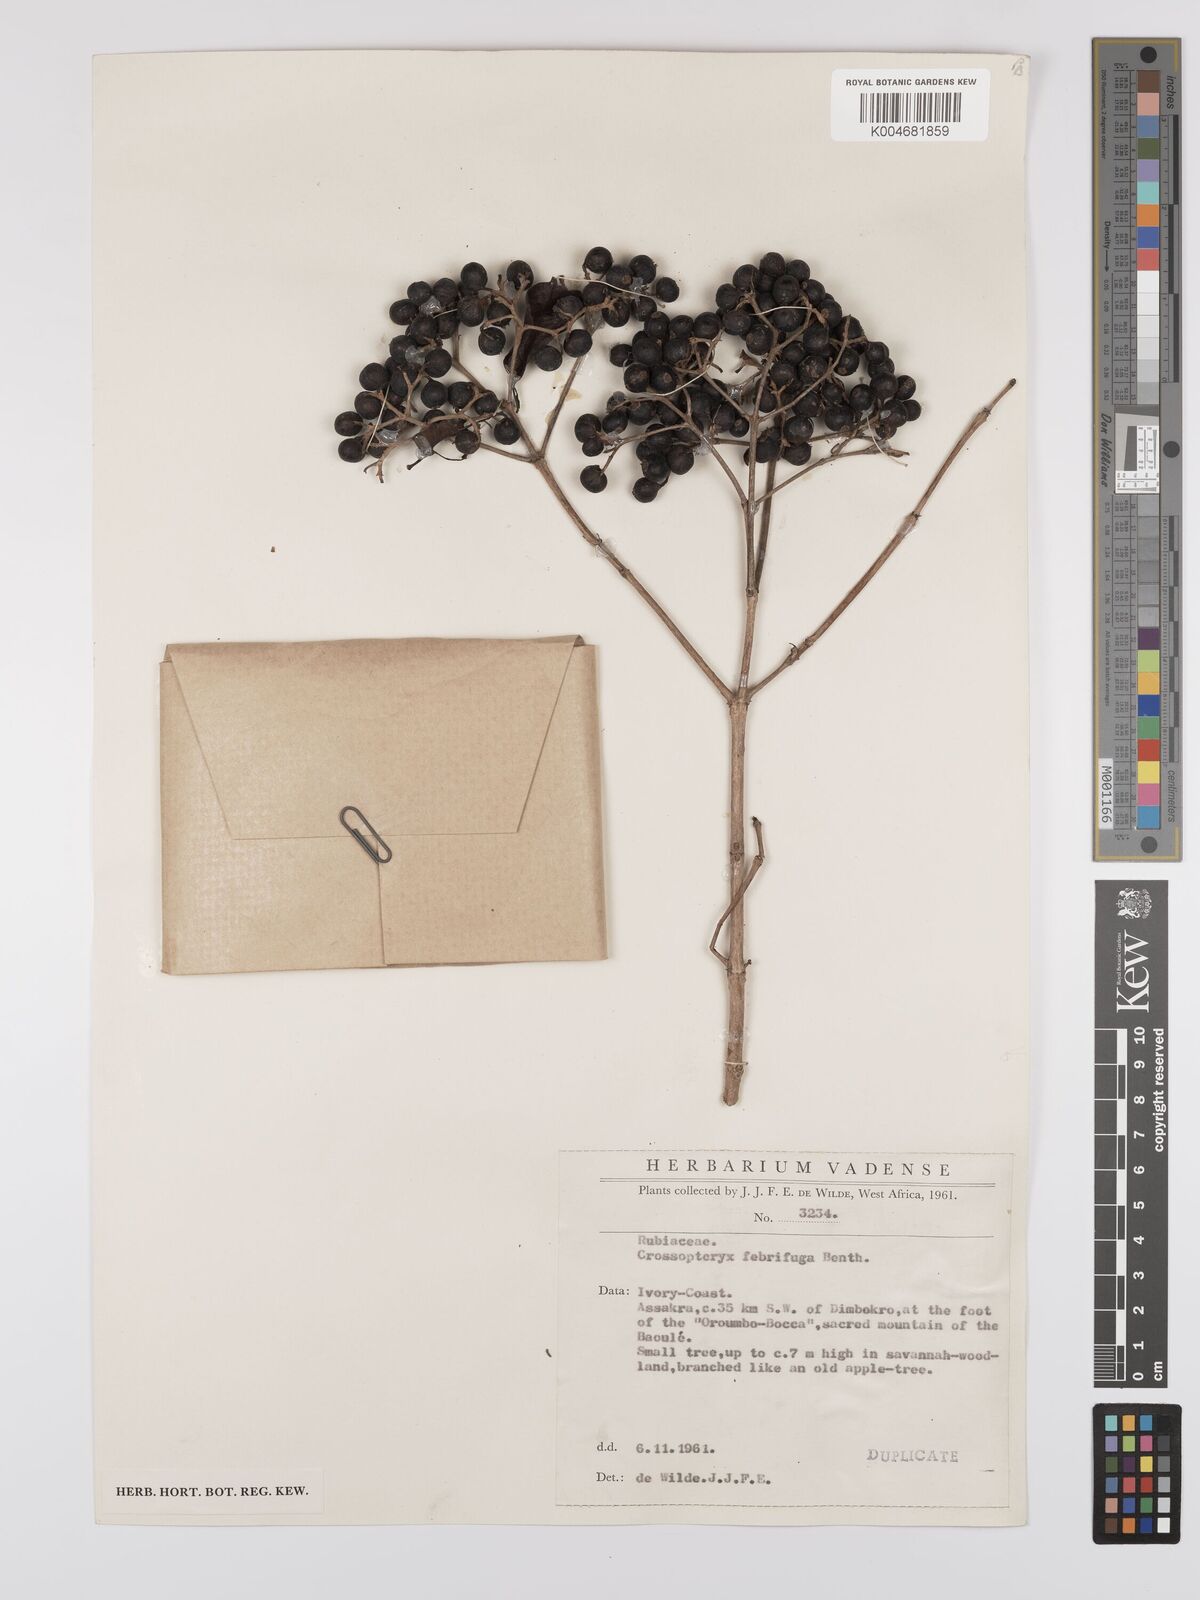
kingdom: Plantae
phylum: Tracheophyta
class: Magnoliopsida
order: Gentianales
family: Rubiaceae
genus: Crossopteryx
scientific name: Crossopteryx febrifuga
